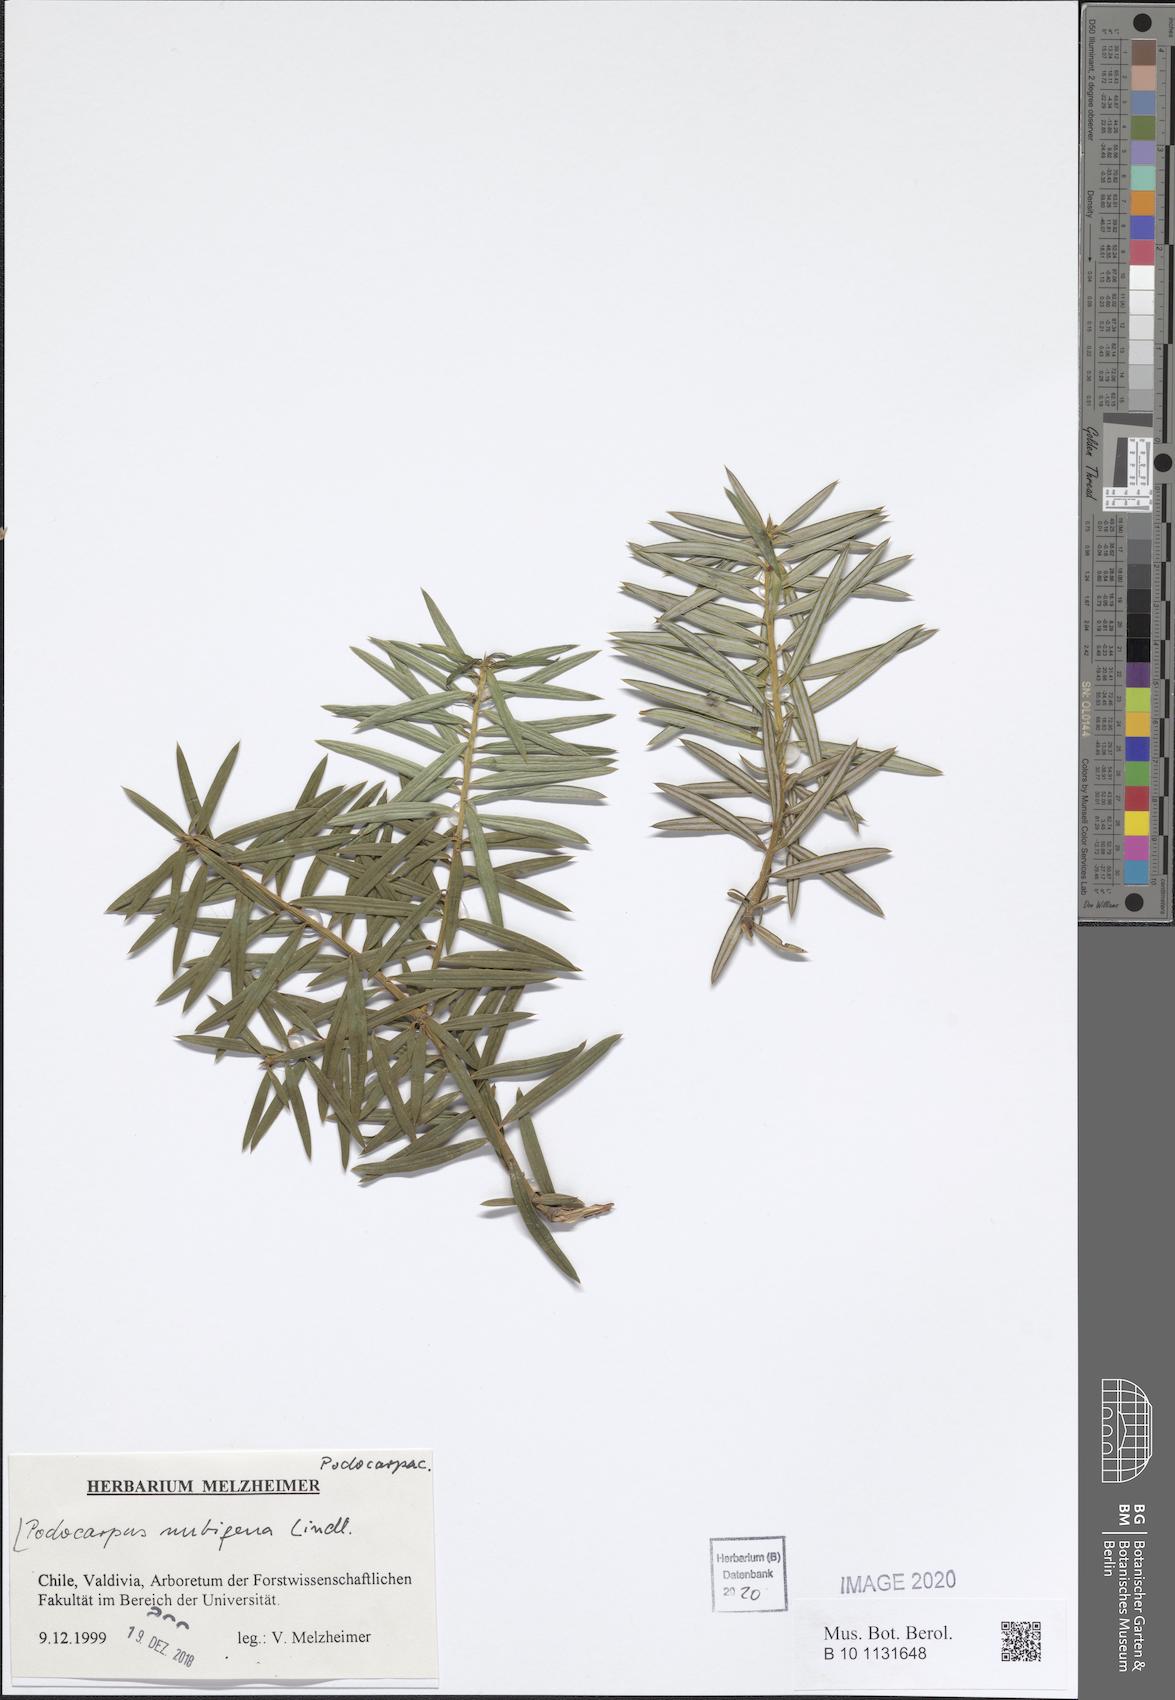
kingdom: Plantae
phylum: Tracheophyta
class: Pinopsida
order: Pinales
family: Podocarpaceae
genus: Podocarpus
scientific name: Podocarpus nubigenus
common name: Cloud podocarp
